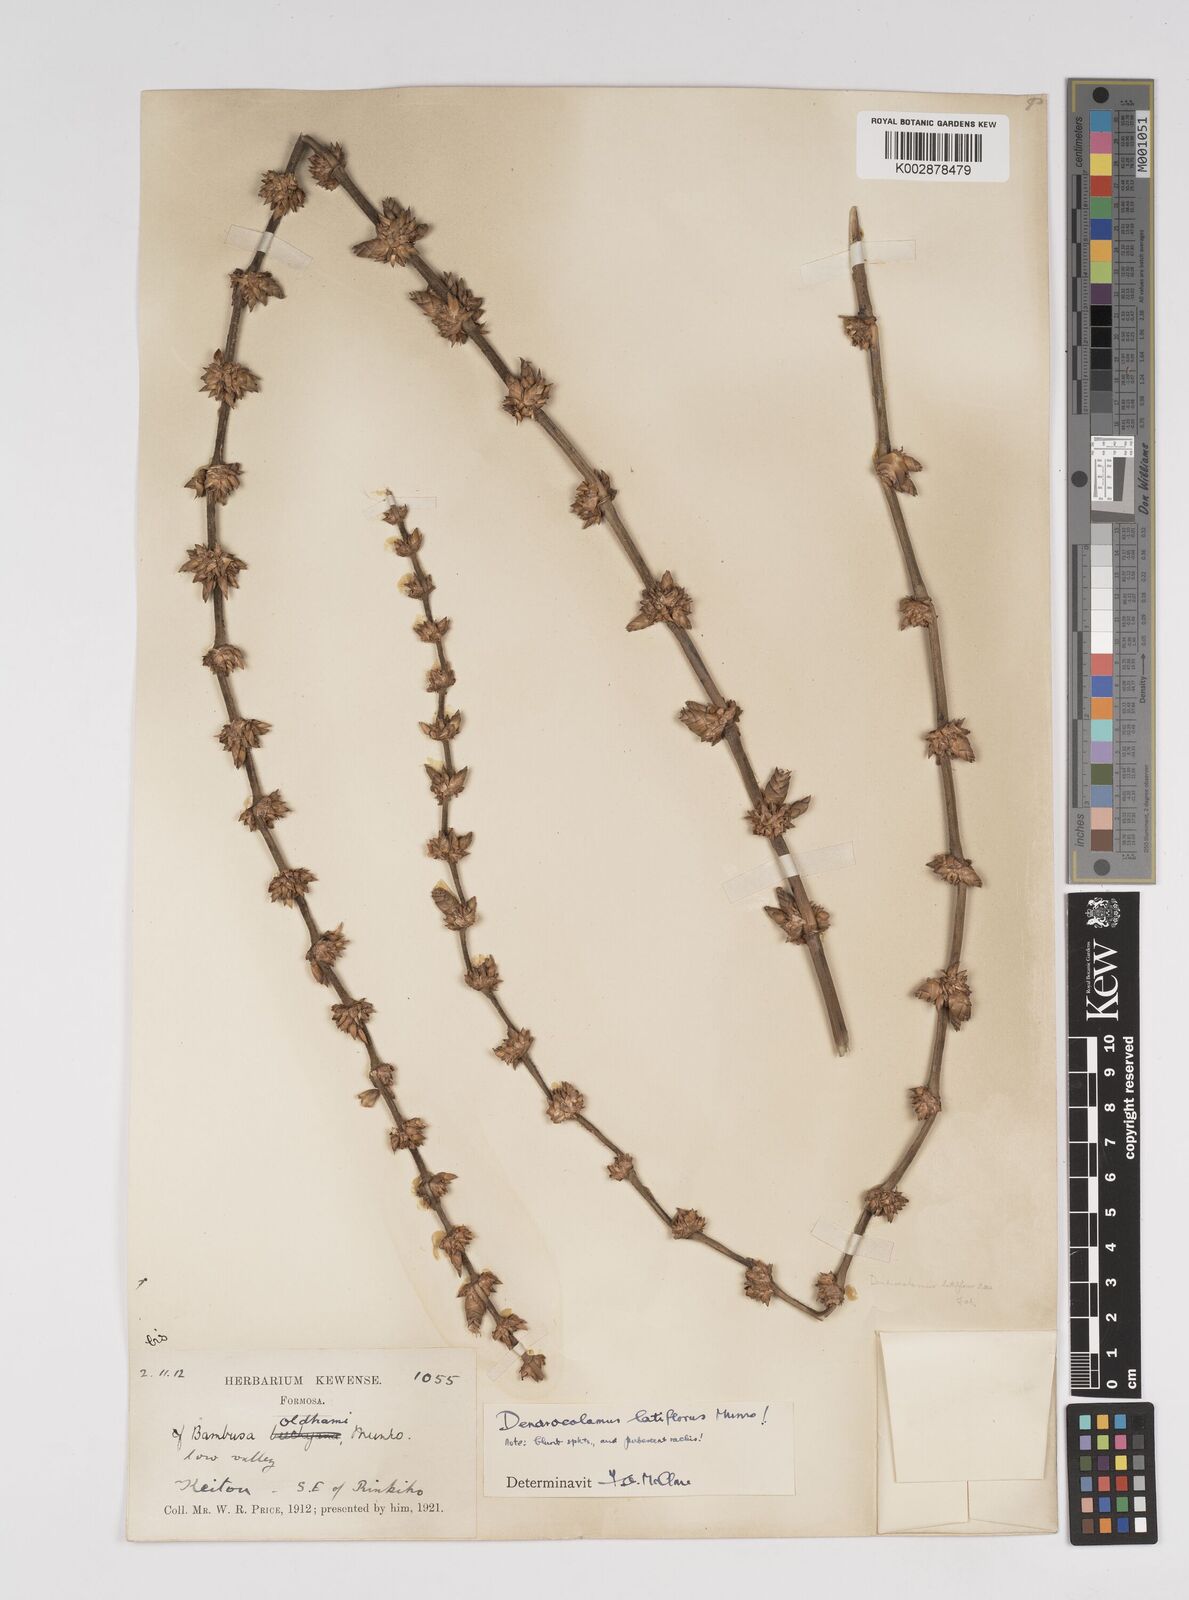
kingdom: Plantae
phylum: Tracheophyta
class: Liliopsida
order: Poales
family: Poaceae
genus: Dendrocalamus
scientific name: Dendrocalamus latiflorus
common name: Giant bamboo
